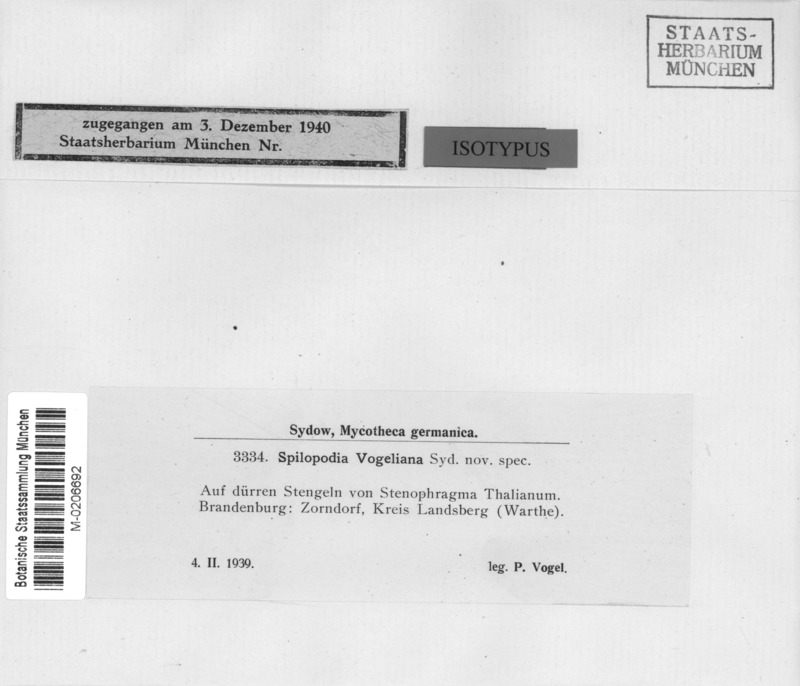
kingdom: Fungi
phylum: Ascomycota
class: Leotiomycetes
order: Helotiales
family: Drepanopezizaceae
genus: Spilopodia
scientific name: Spilopodia vogelii
